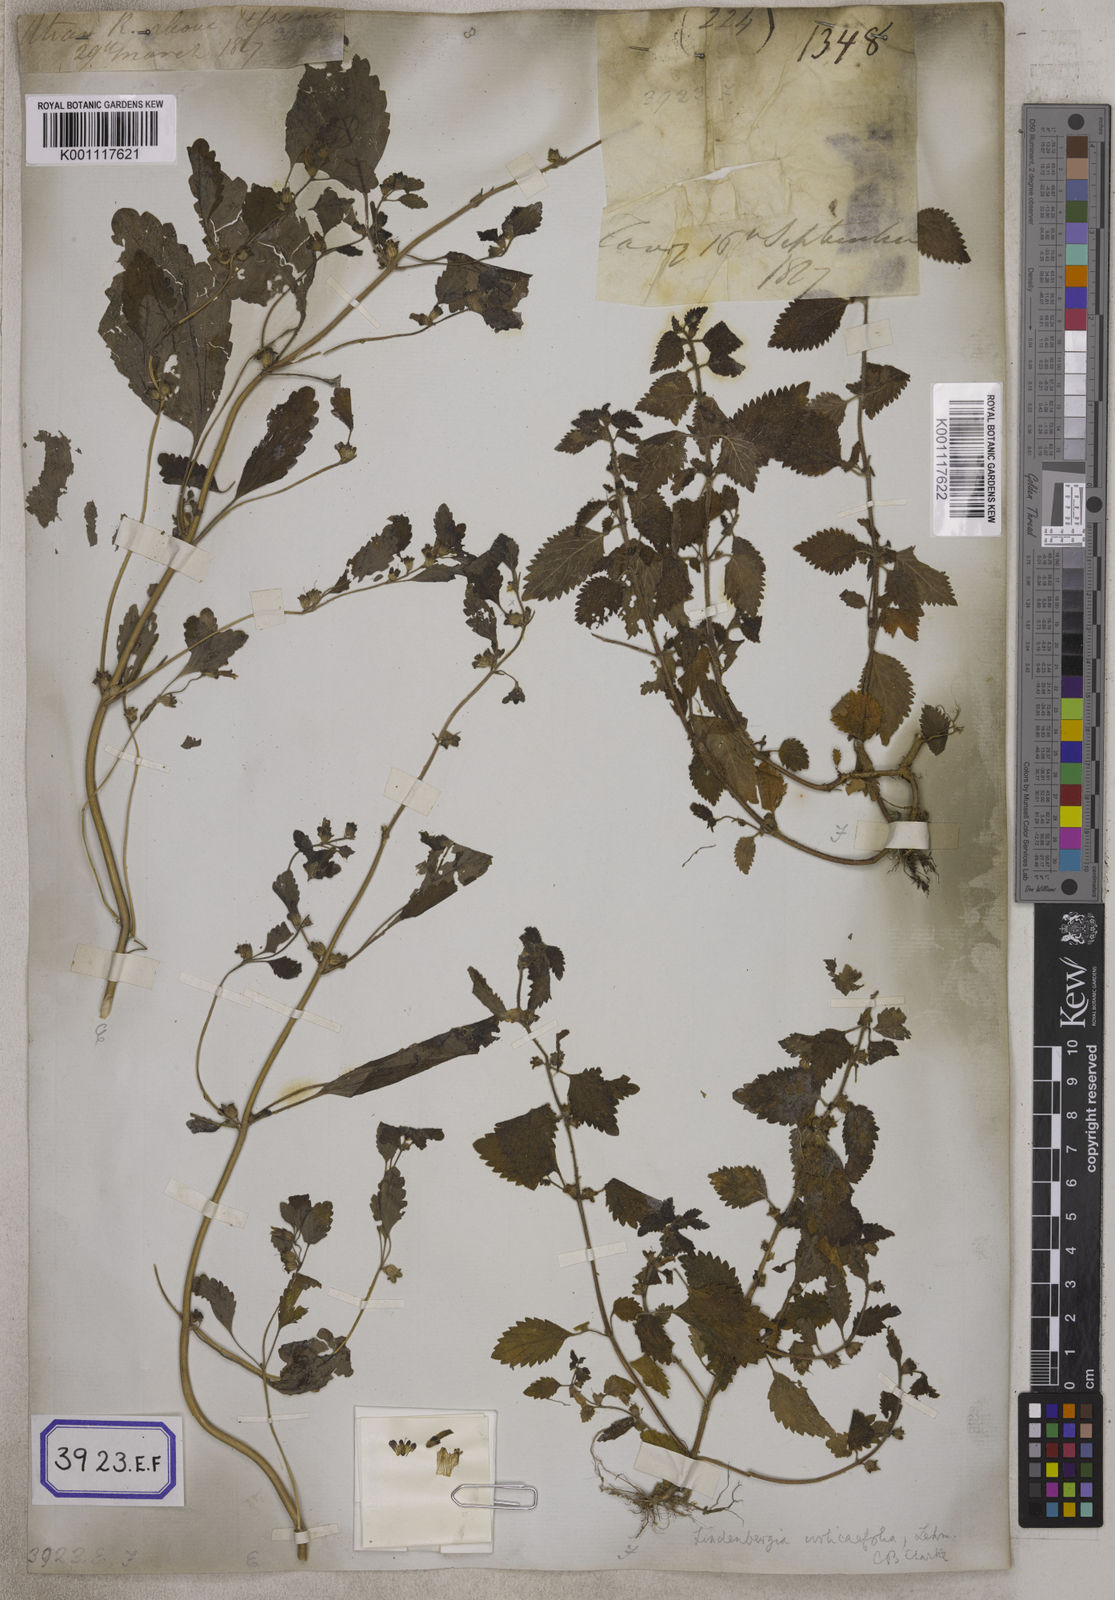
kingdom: Plantae
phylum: Tracheophyta
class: Magnoliopsida
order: Lamiales
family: Orobanchaceae
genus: Lindenbergia
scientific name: Lindenbergia muraria
